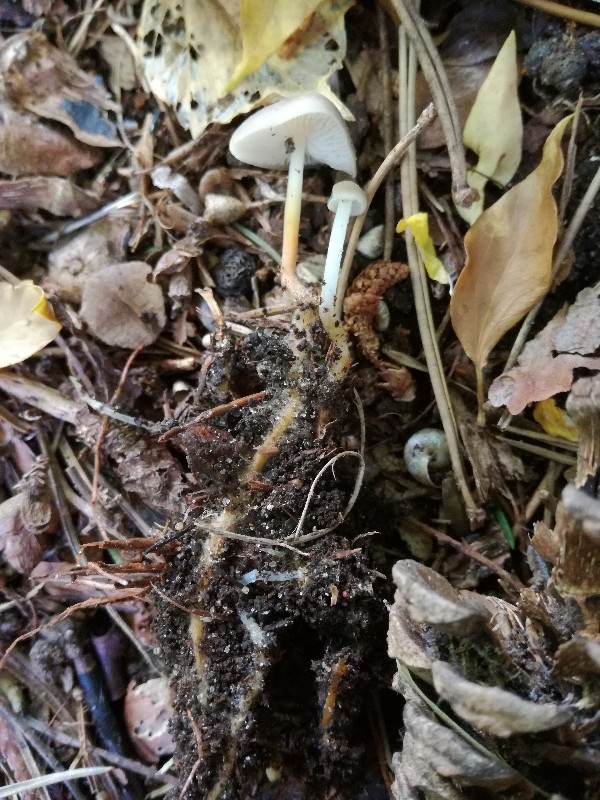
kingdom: Fungi
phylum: Basidiomycota
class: Agaricomycetes
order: Agaricales
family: Physalacriaceae
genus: Strobilurus
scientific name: Strobilurus tenacellus
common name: sommer-koglehat
